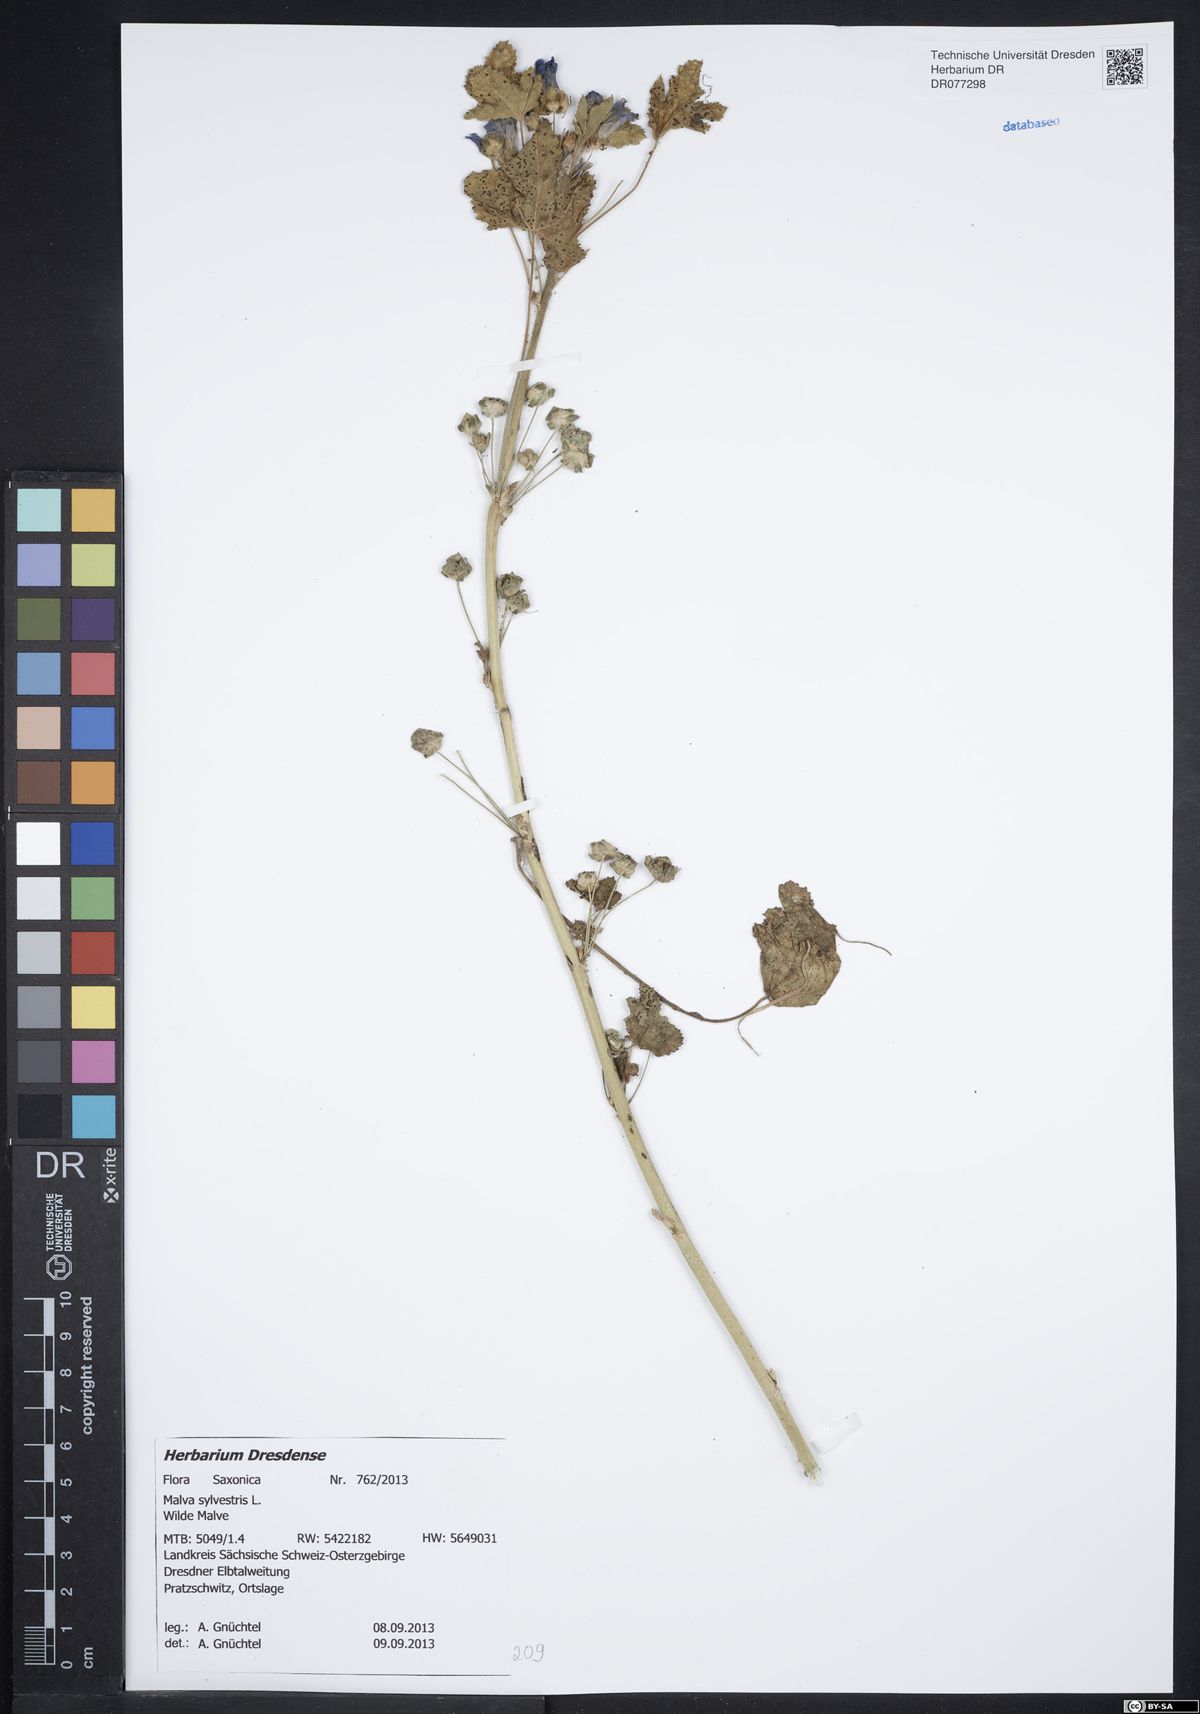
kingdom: Plantae
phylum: Tracheophyta
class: Magnoliopsida
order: Malvales
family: Malvaceae
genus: Malva
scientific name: Malva sylvestris
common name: Common mallow
